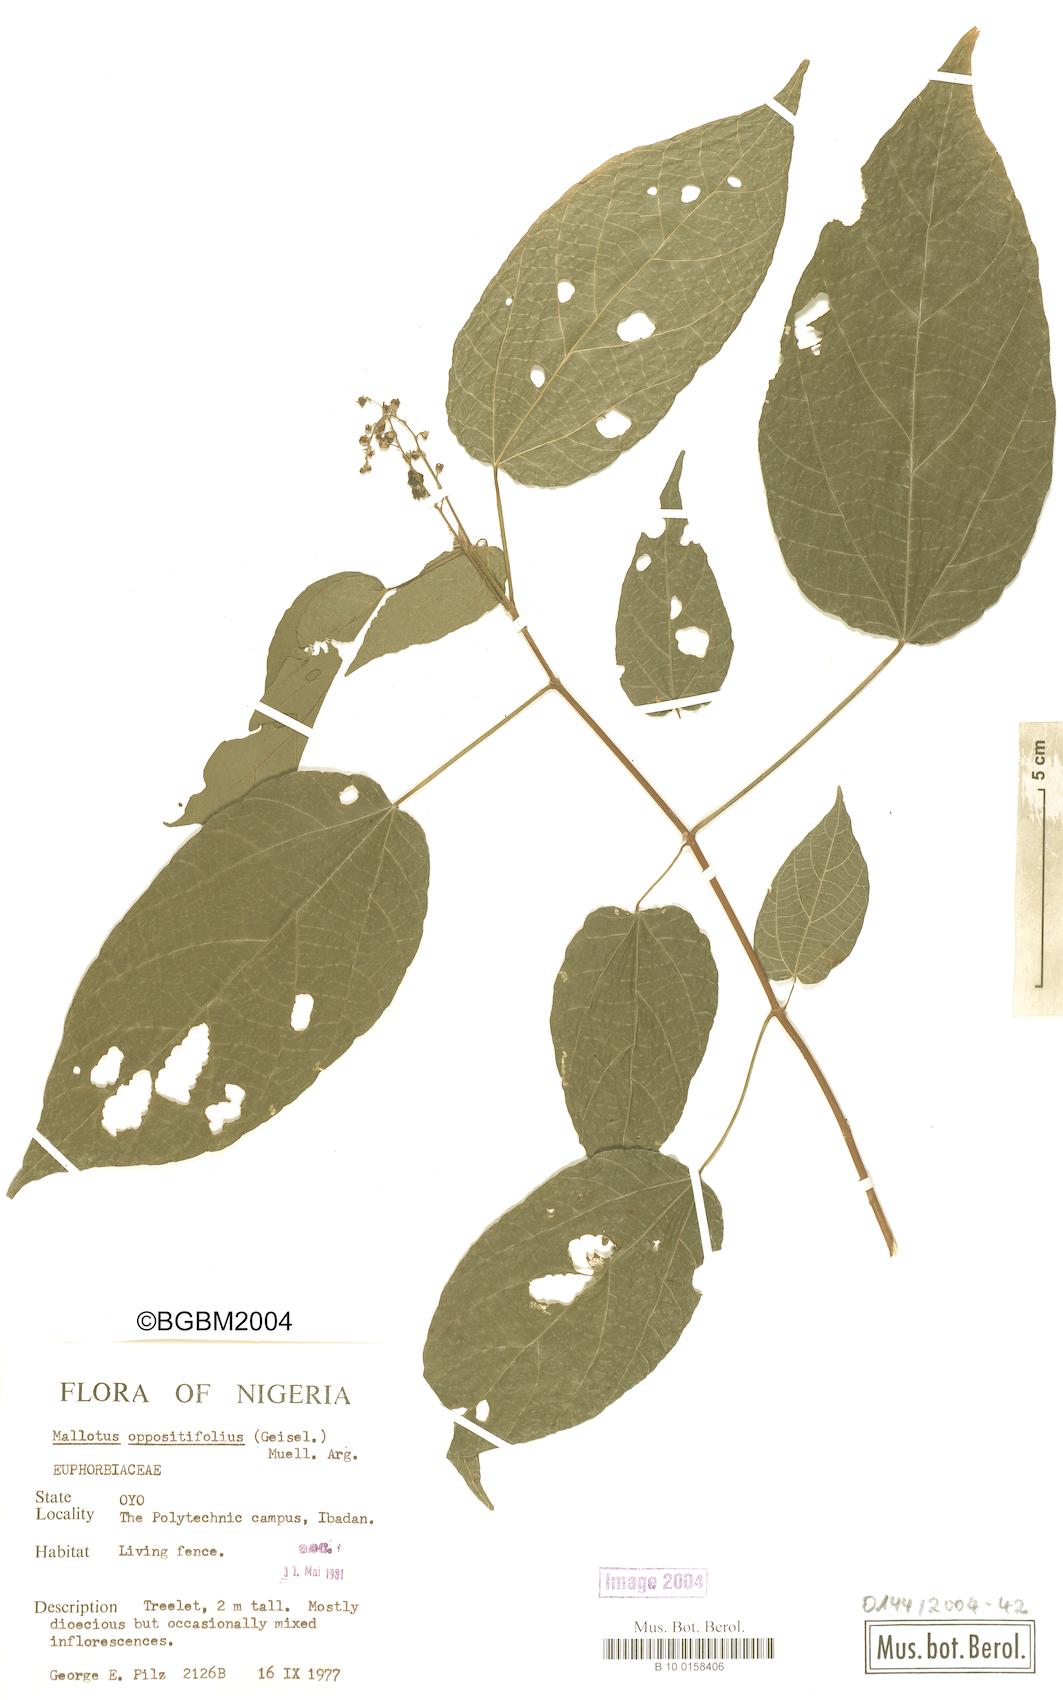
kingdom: Plantae
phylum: Tracheophyta
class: Magnoliopsida
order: Malpighiales
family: Euphorbiaceae
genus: Mallotus
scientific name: Mallotus oppositifolius
